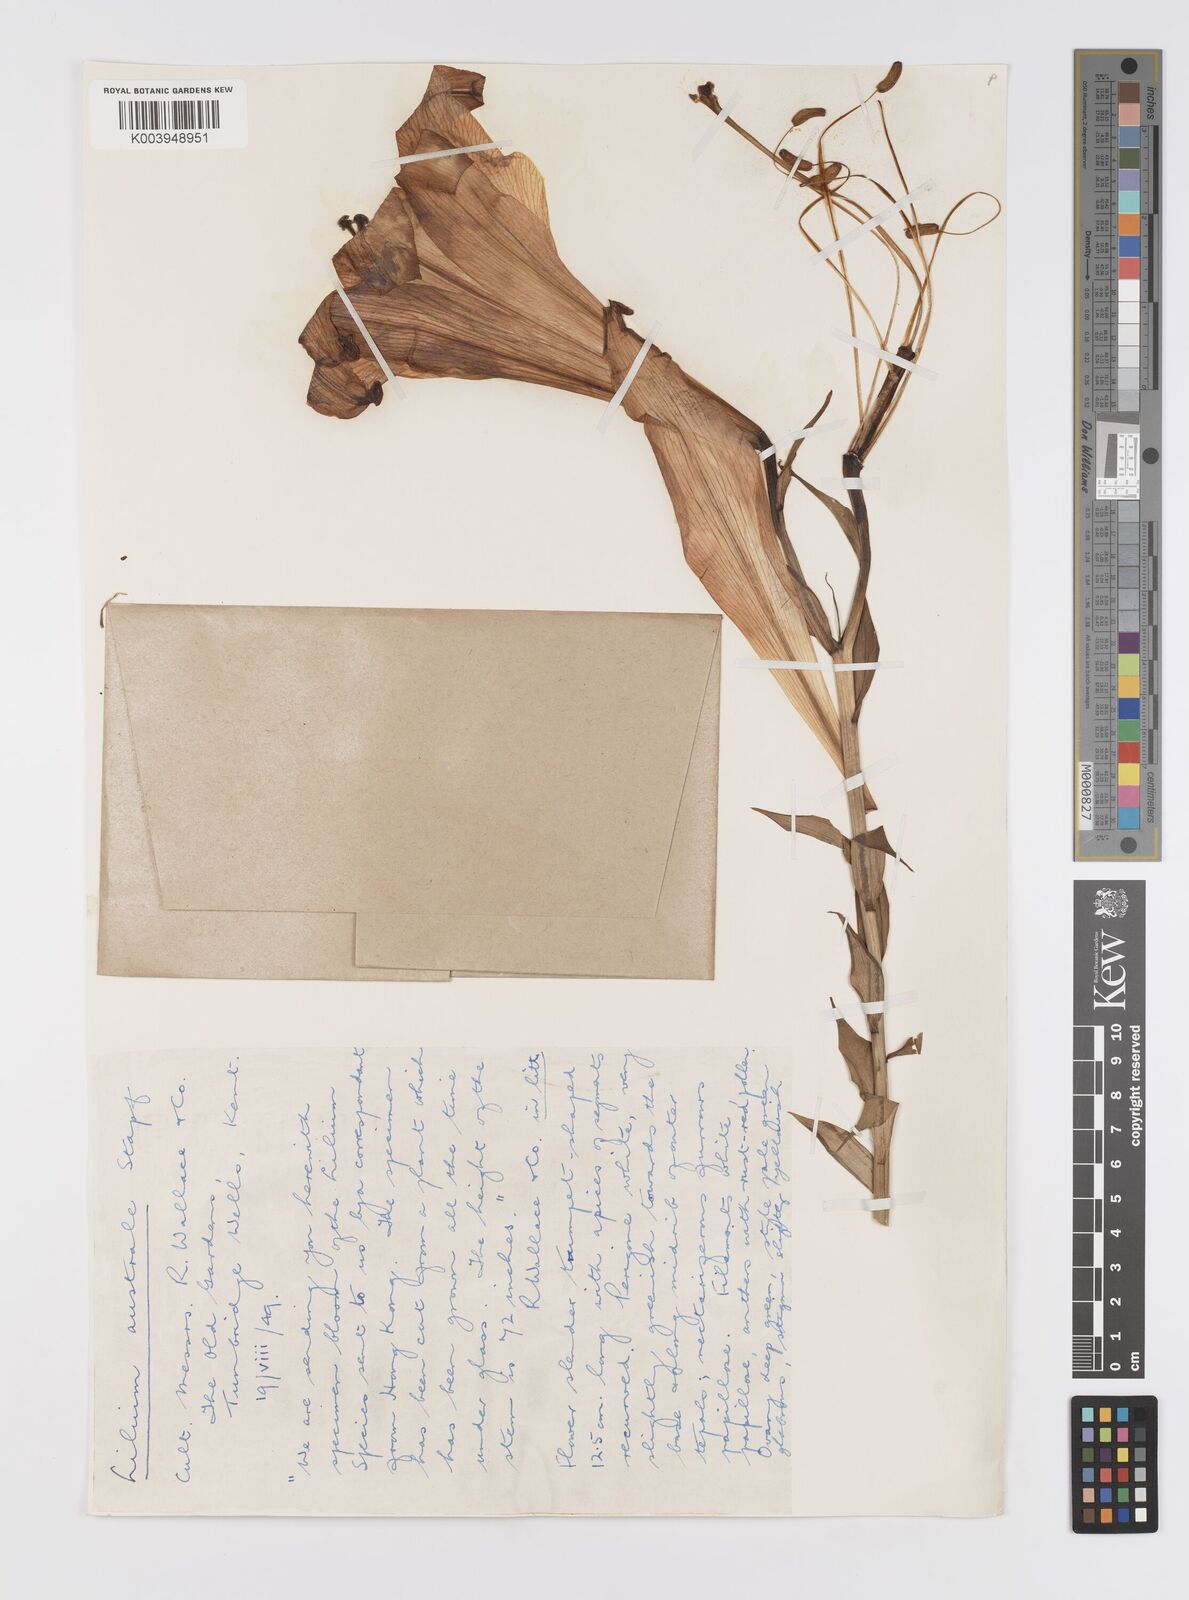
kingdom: Plantae
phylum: Tracheophyta
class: Liliopsida
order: Liliales
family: Liliaceae
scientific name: Liliaceae
